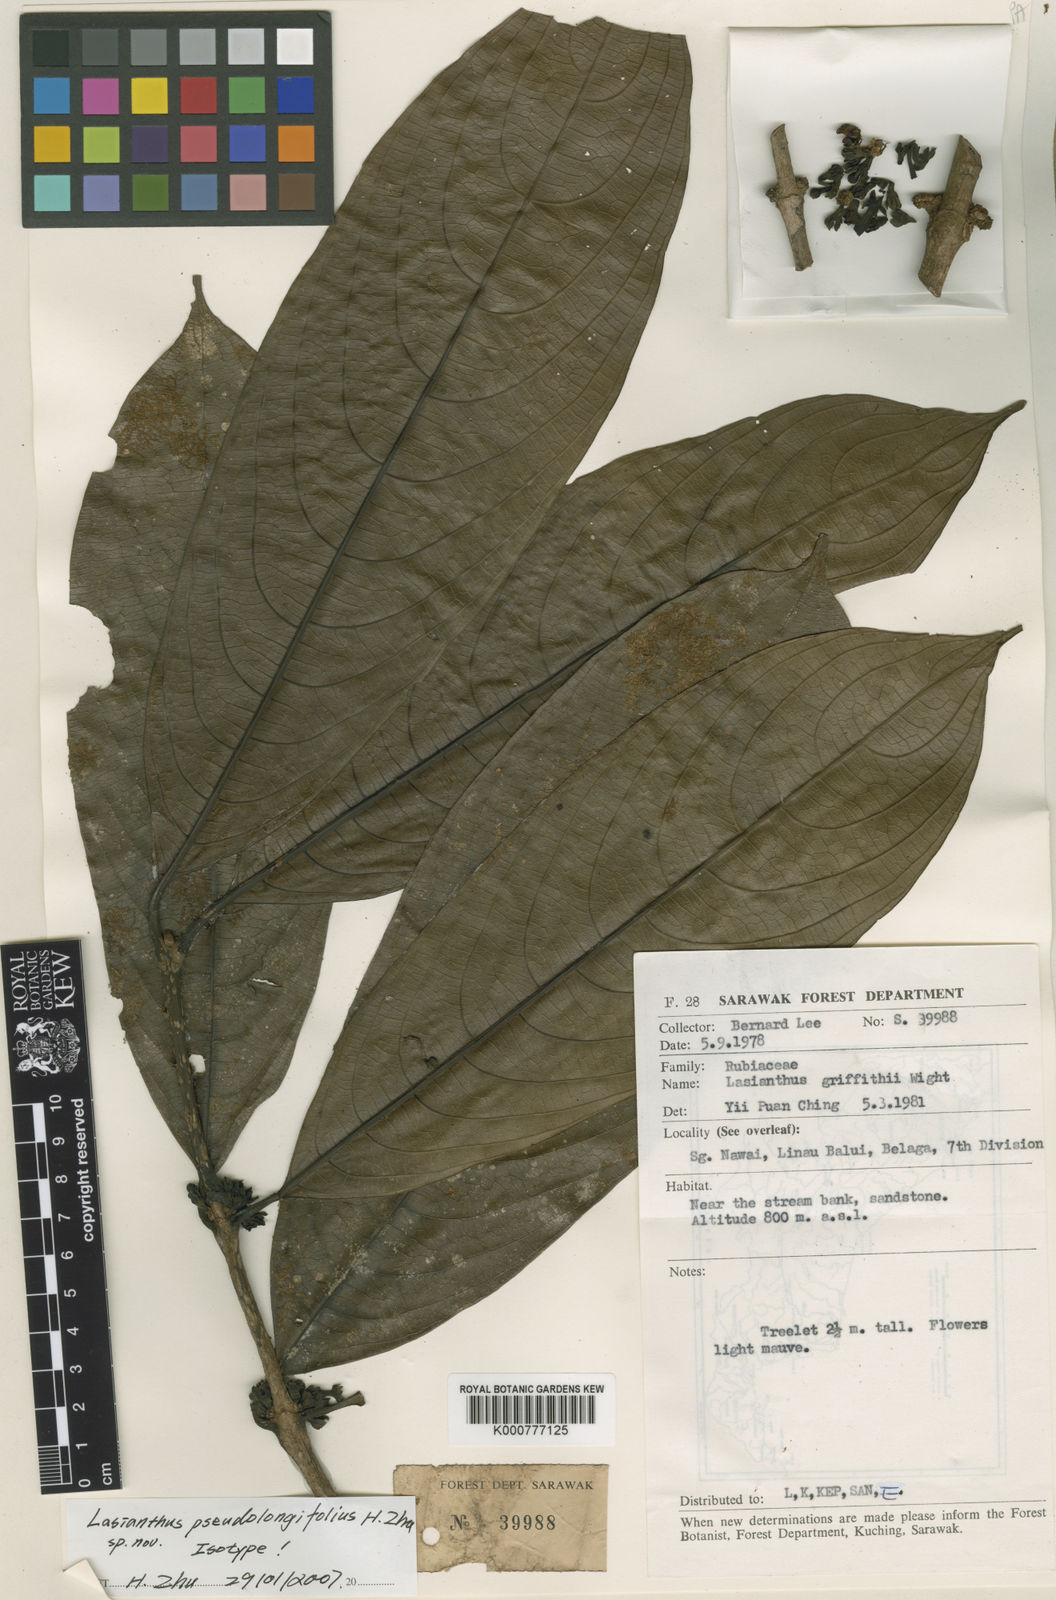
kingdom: Plantae
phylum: Tracheophyta
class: Magnoliopsida
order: Gentianales
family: Rubiaceae
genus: Lasianthus
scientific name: Lasianthus pseudolongifolius
